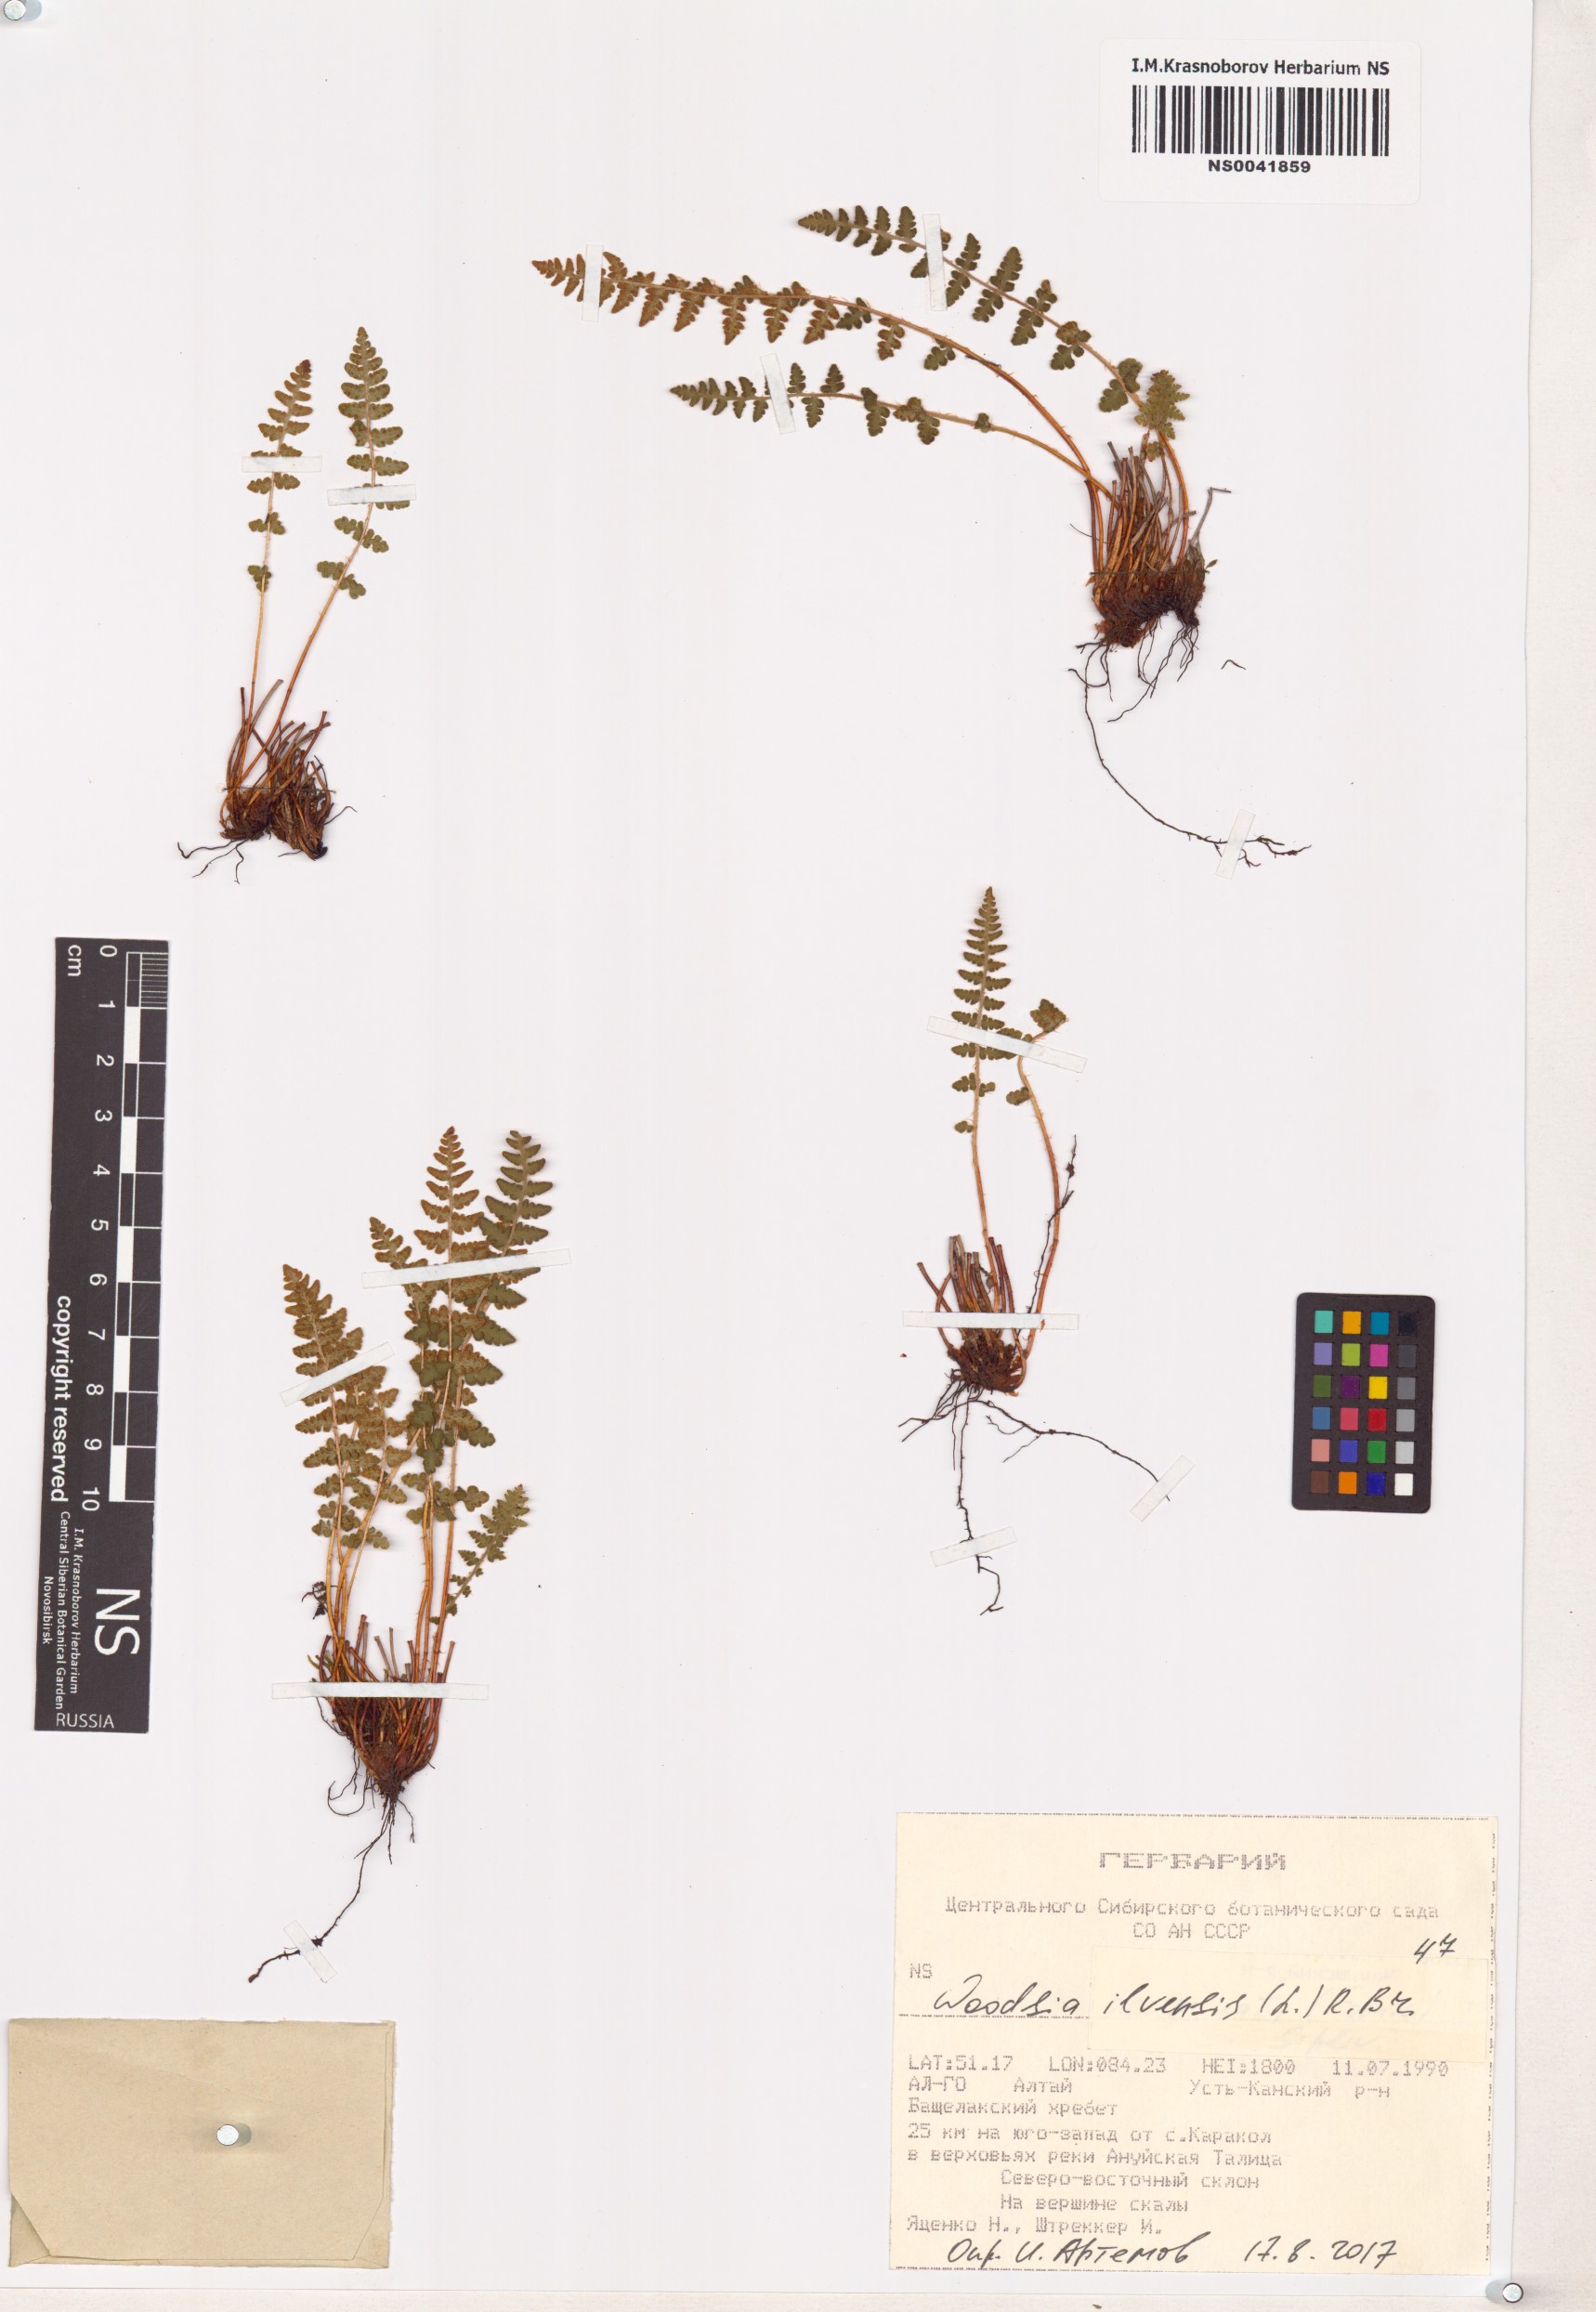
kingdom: Plantae
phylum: Tracheophyta
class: Polypodiopsida
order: Polypodiales
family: Woodsiaceae
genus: Woodsia
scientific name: Woodsia ilvensis
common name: Fragrant woodsia
